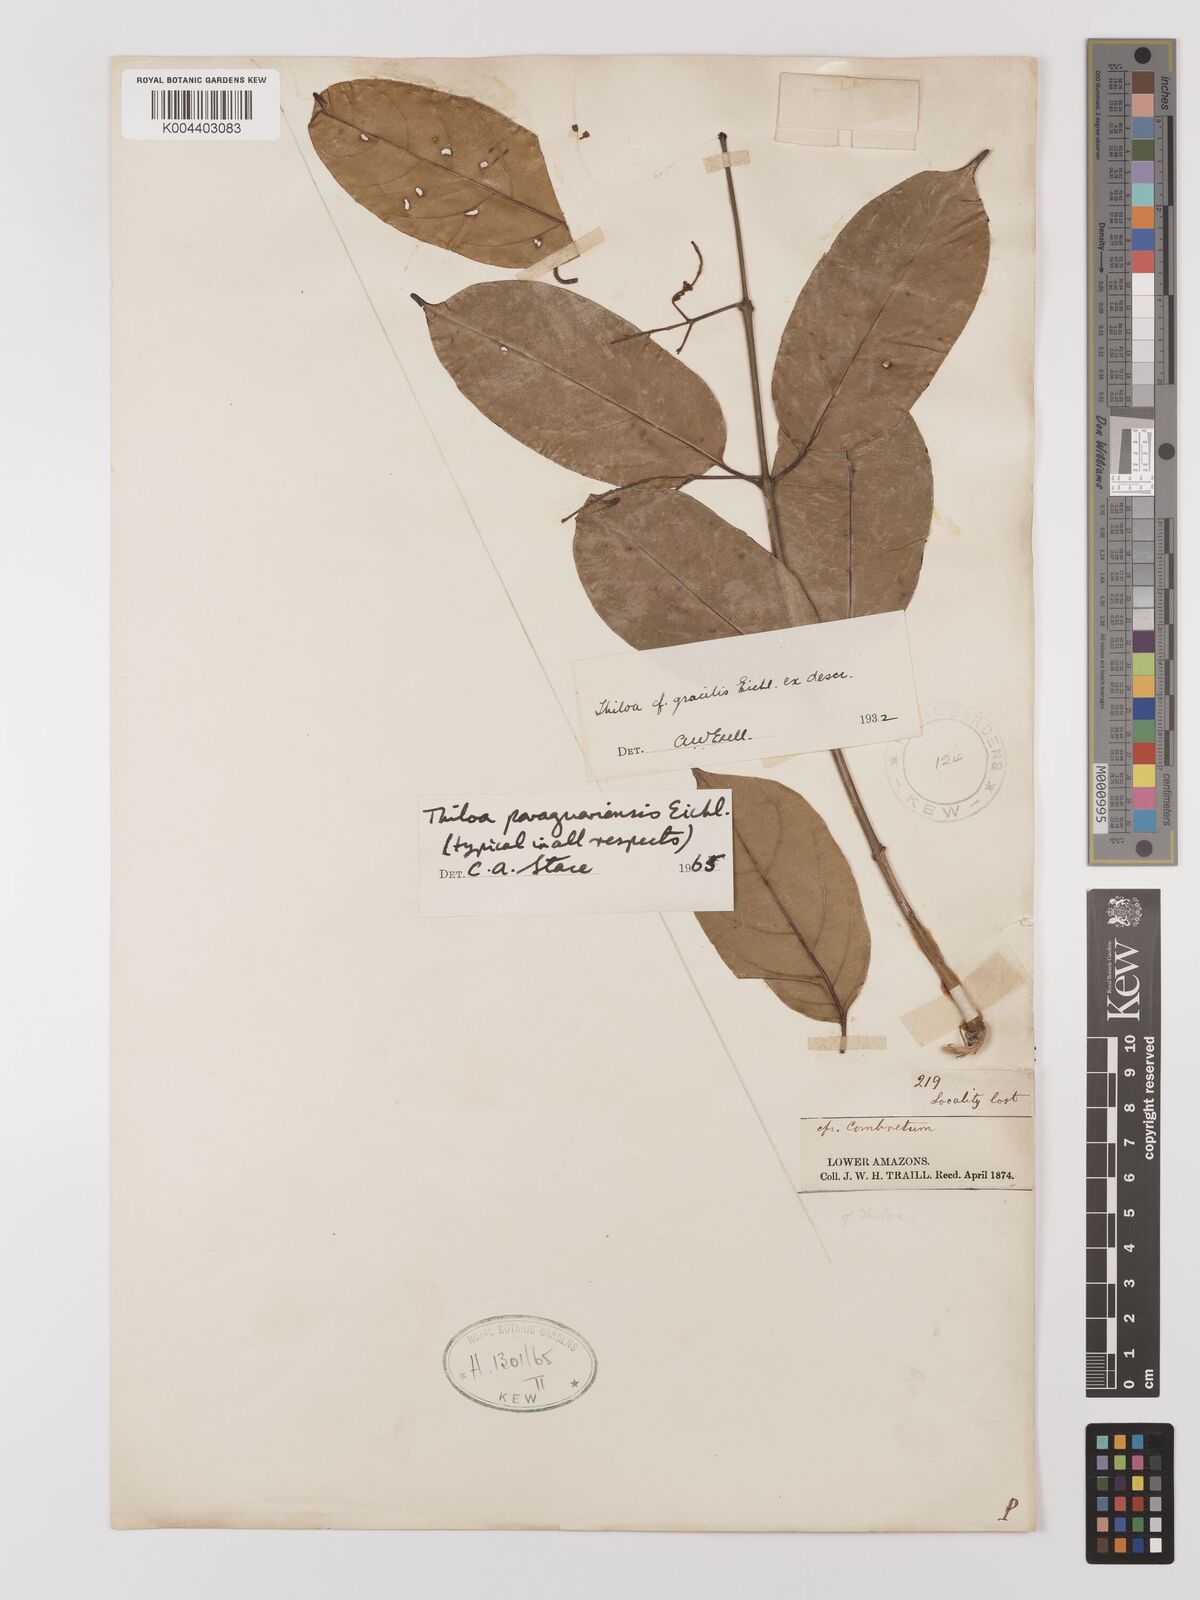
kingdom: Plantae
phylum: Tracheophyta
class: Magnoliopsida
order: Myrtales
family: Combretaceae
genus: Combretum
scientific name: Combretum paraguariense
